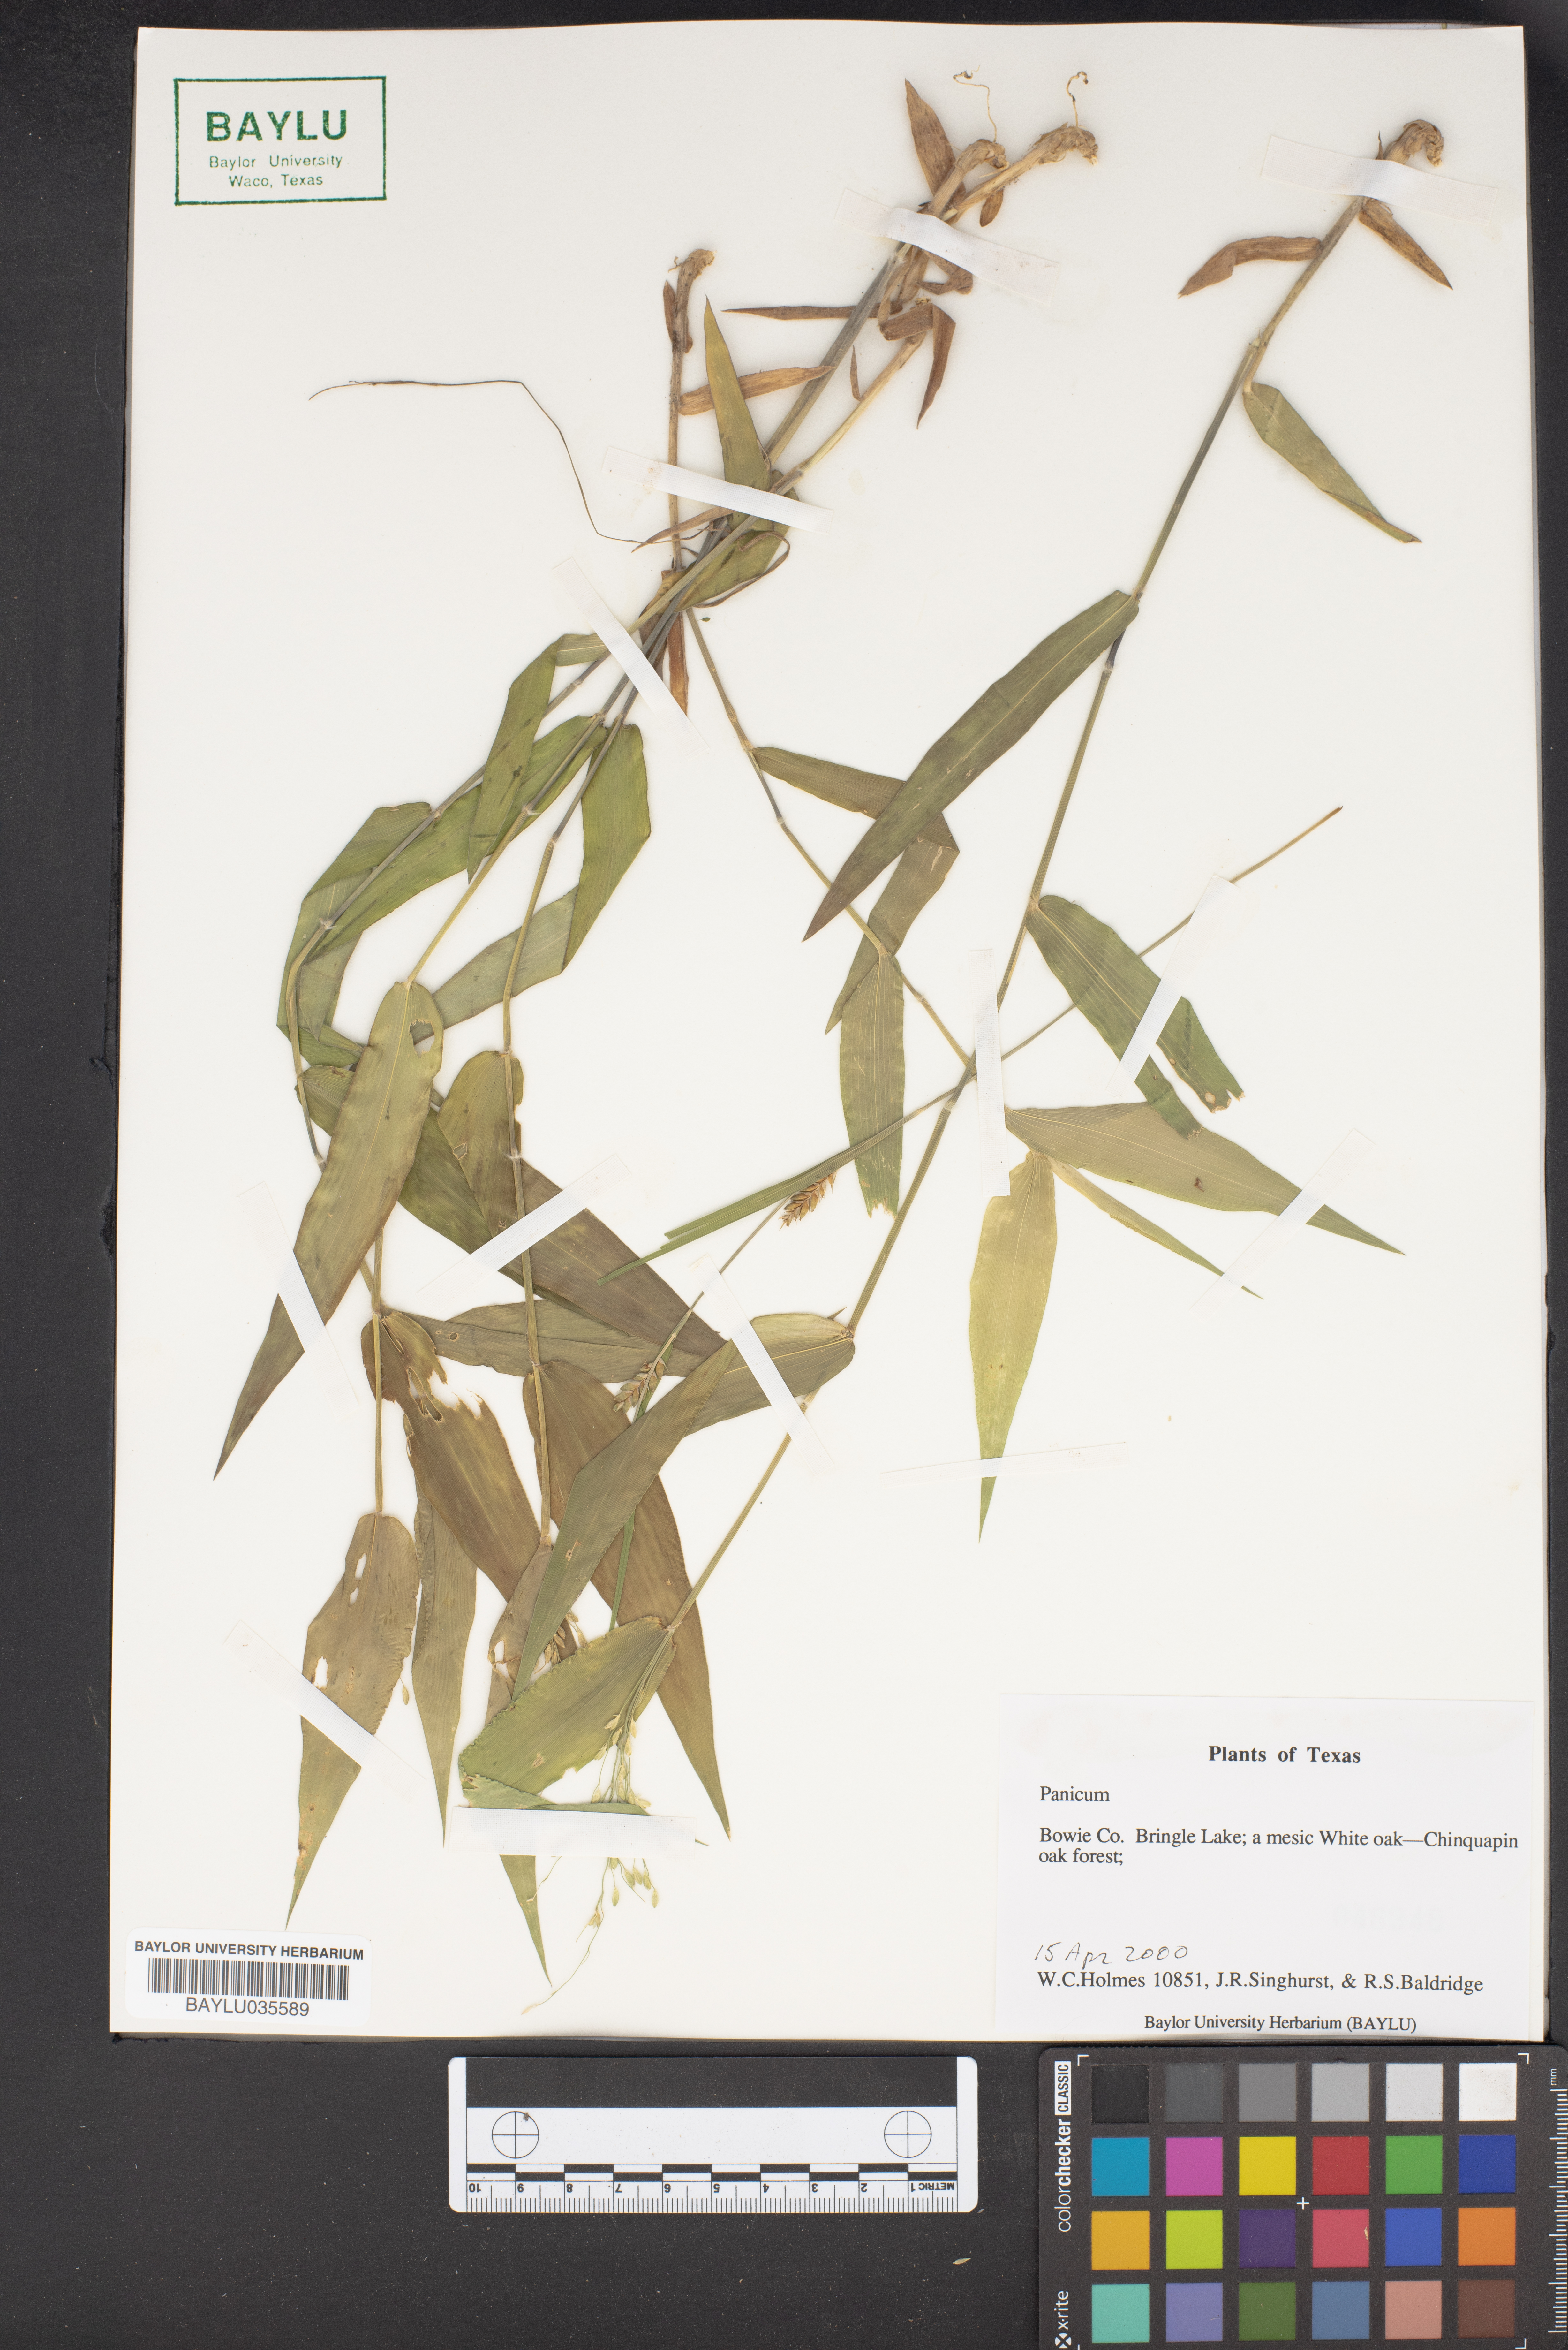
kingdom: Plantae
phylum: Tracheophyta
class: Liliopsida
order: Poales
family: Poaceae
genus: Panicum
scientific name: Panicum
